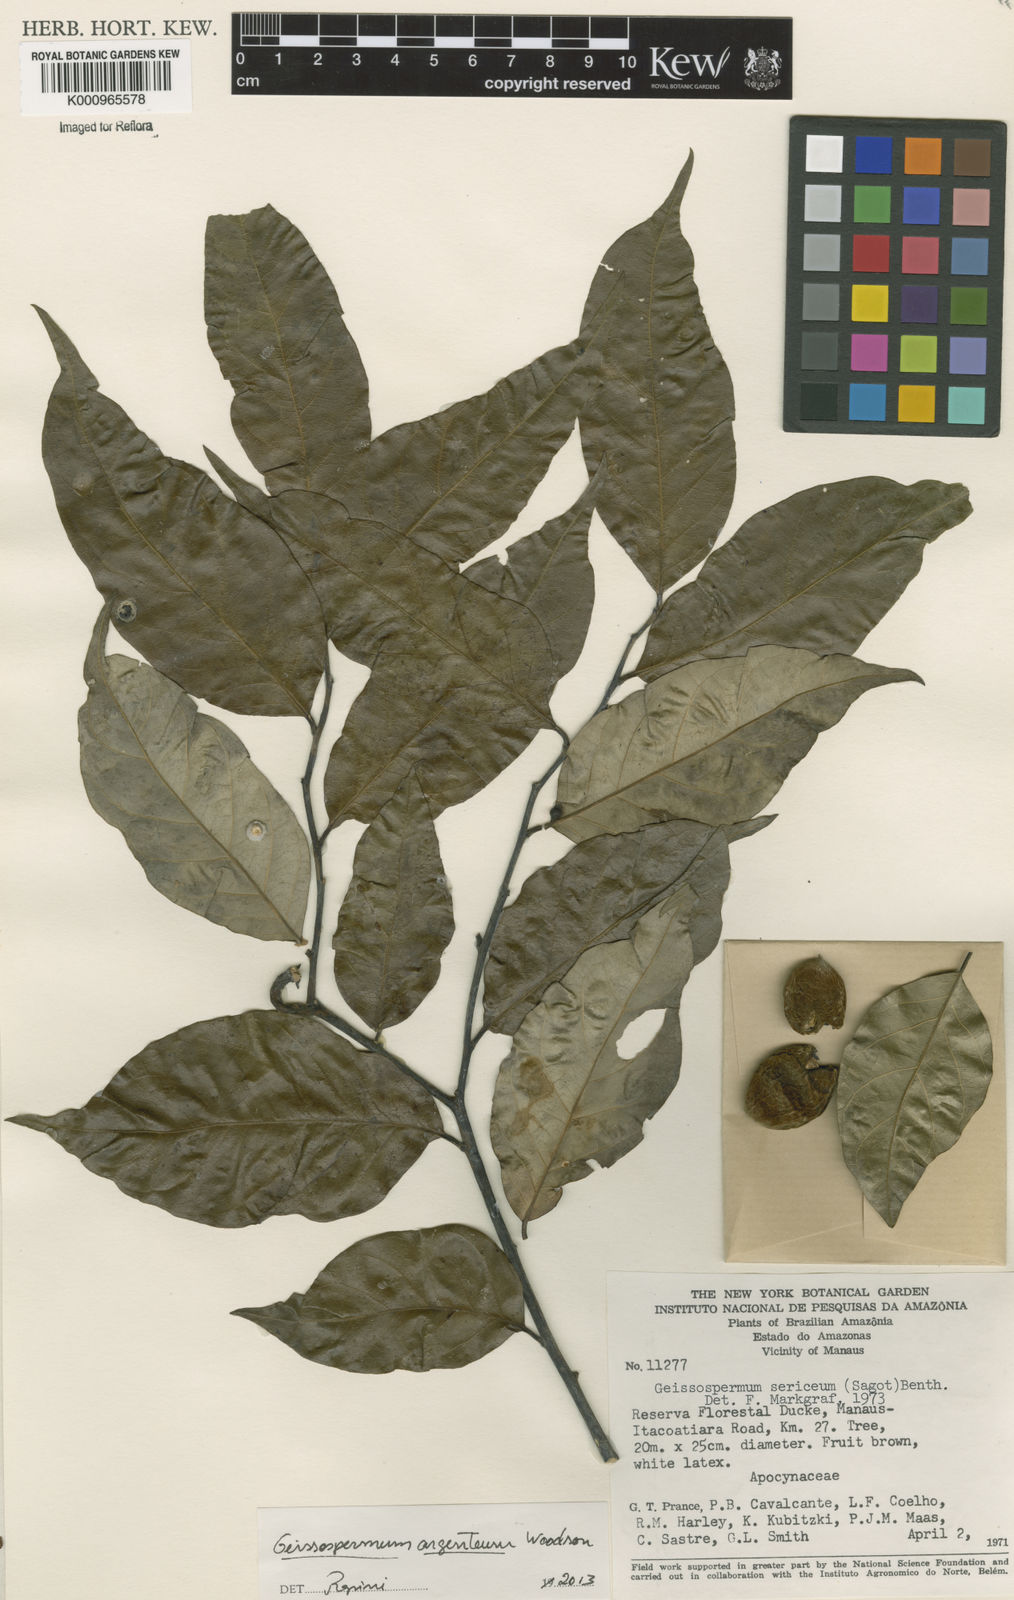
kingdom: Plantae
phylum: Tracheophyta
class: Magnoliopsida
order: Gentianales
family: Apocynaceae
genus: Geissospermum
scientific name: Geissospermum argenteum
